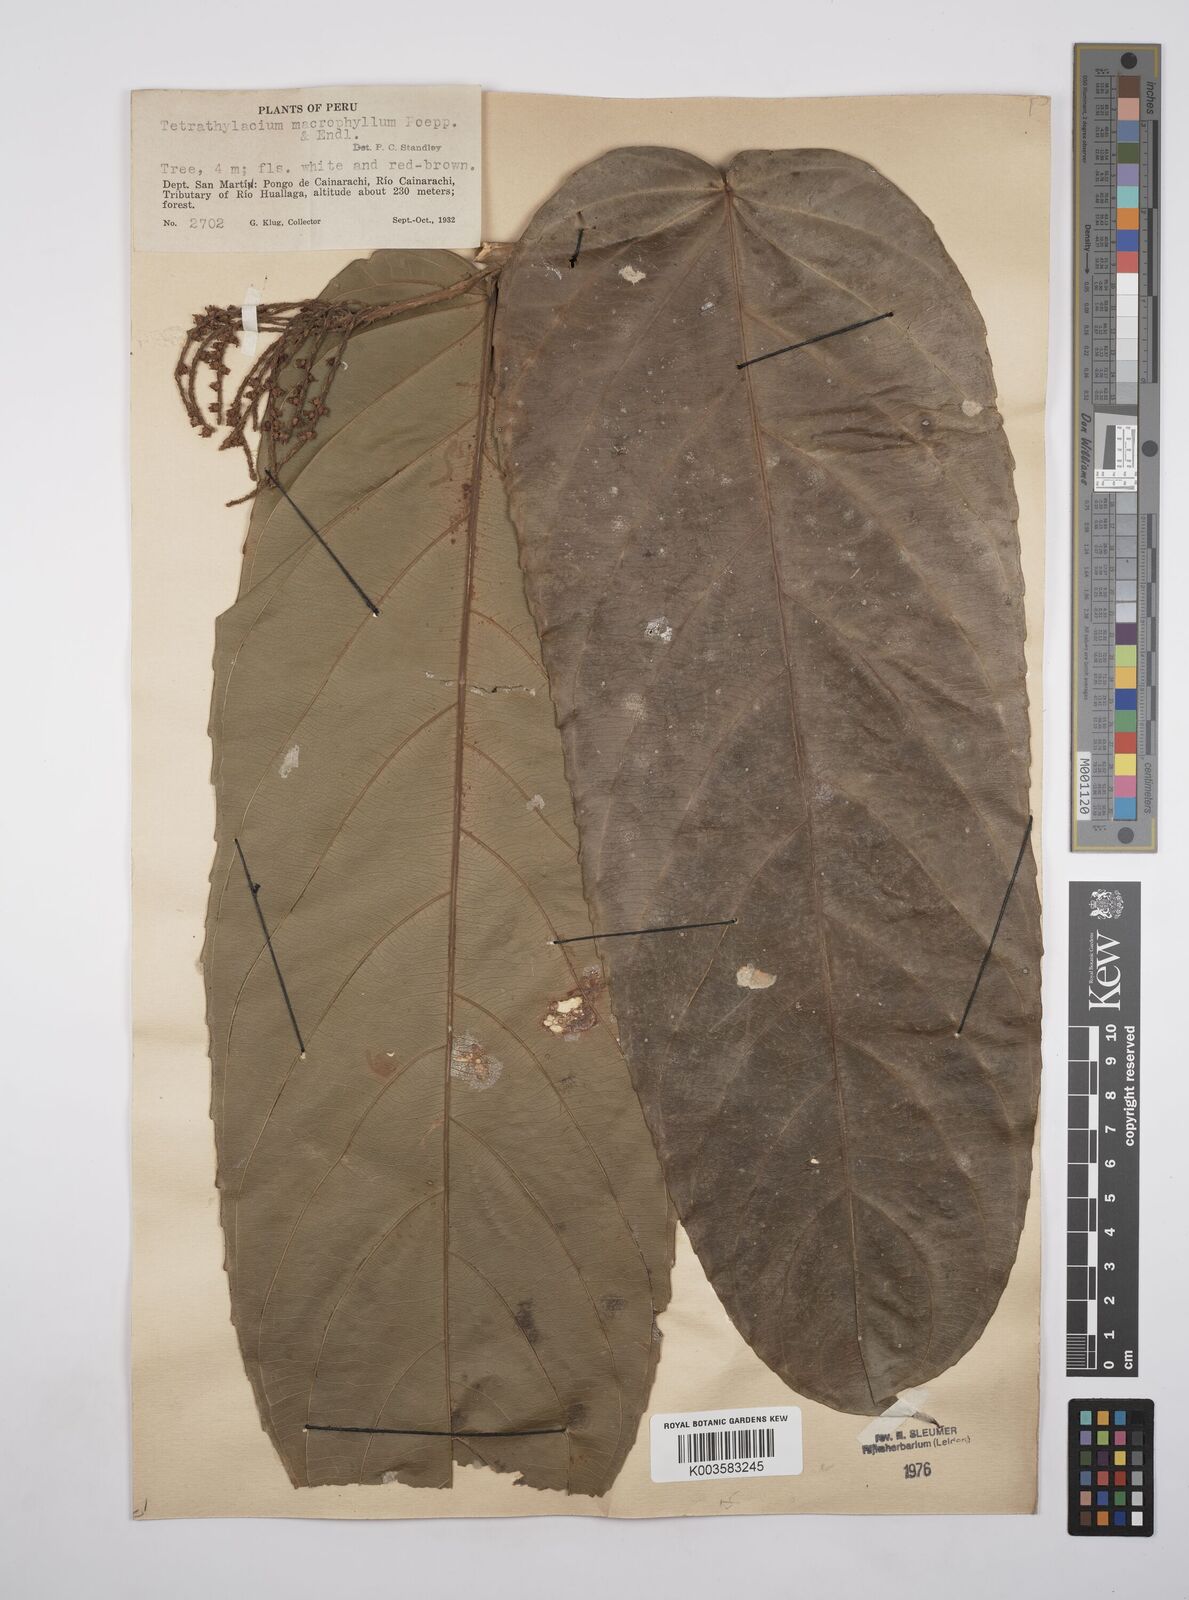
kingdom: Plantae
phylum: Tracheophyta
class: Magnoliopsida
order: Malpighiales
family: Salicaceae
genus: Tetrathylacium
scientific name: Tetrathylacium macrophyllum
